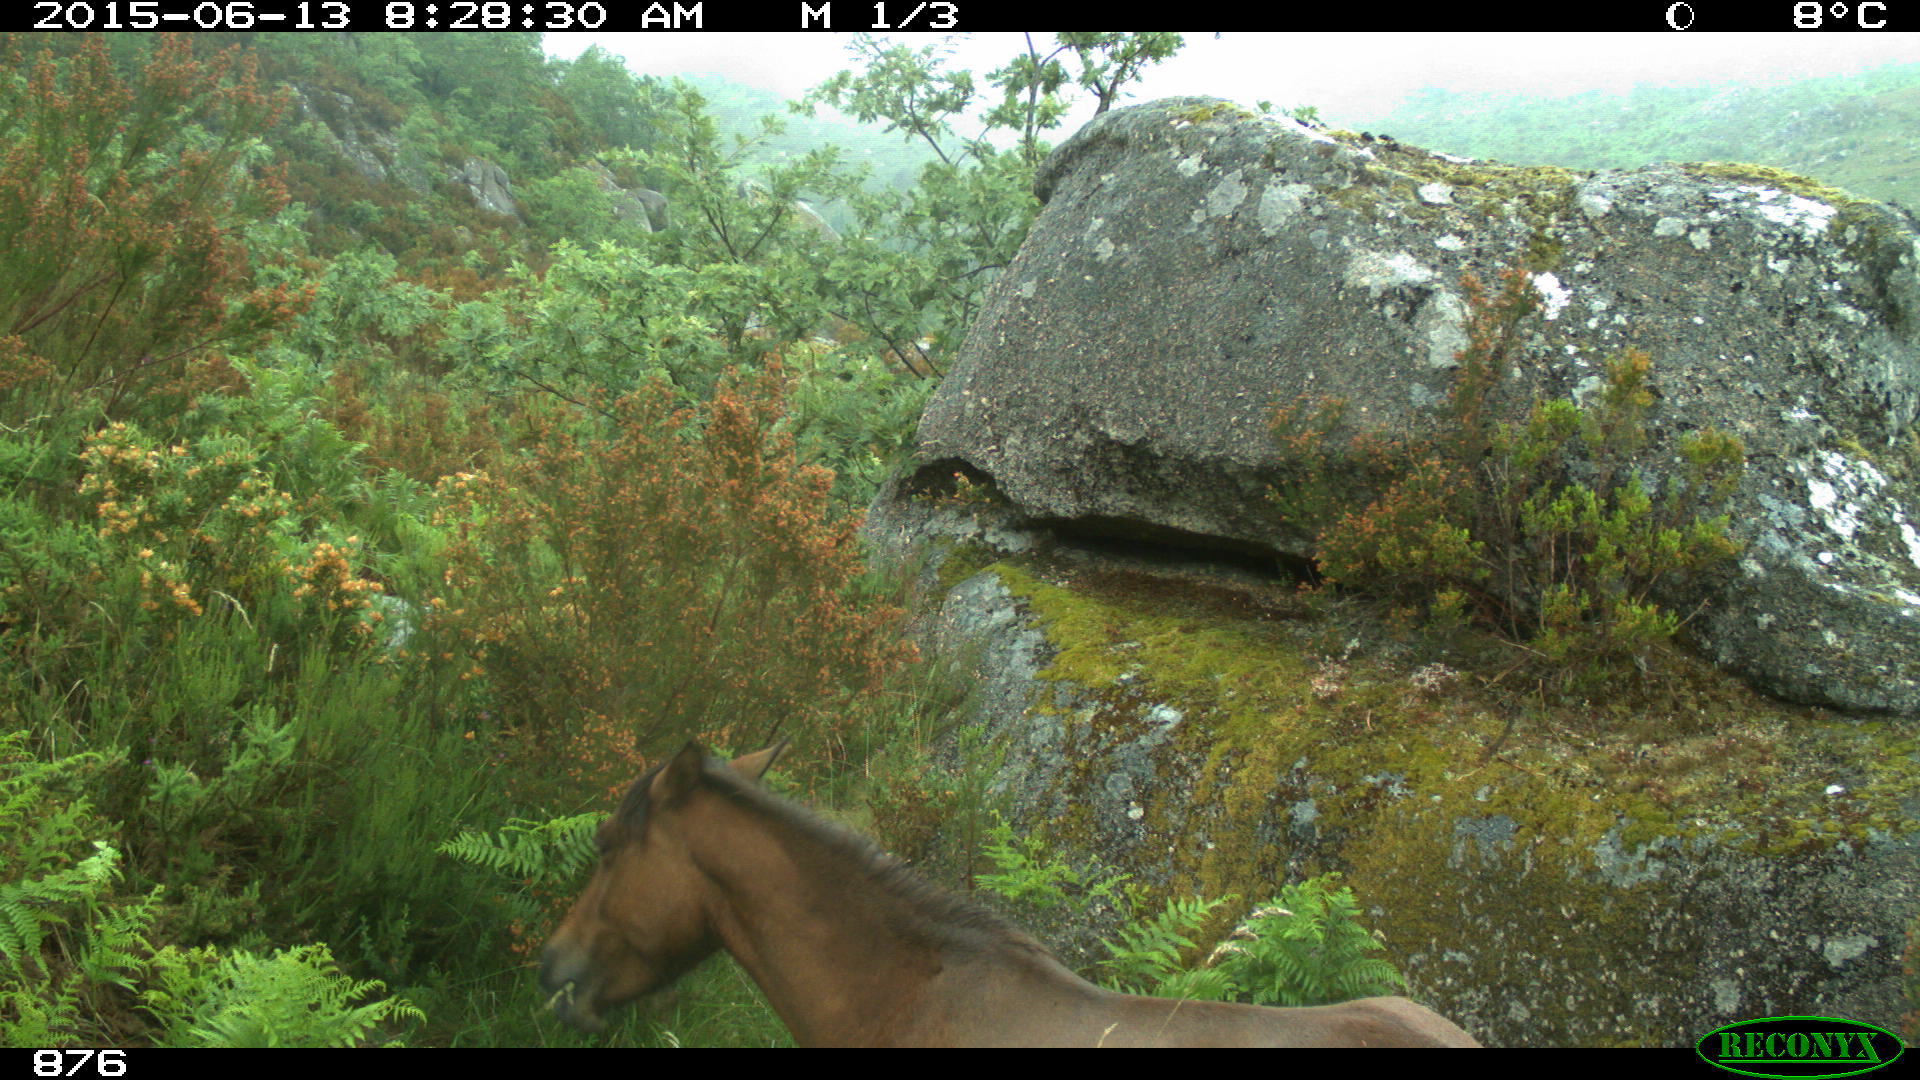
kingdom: Animalia
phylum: Chordata
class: Mammalia
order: Perissodactyla
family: Equidae
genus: Equus
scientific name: Equus caballus
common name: Horse
